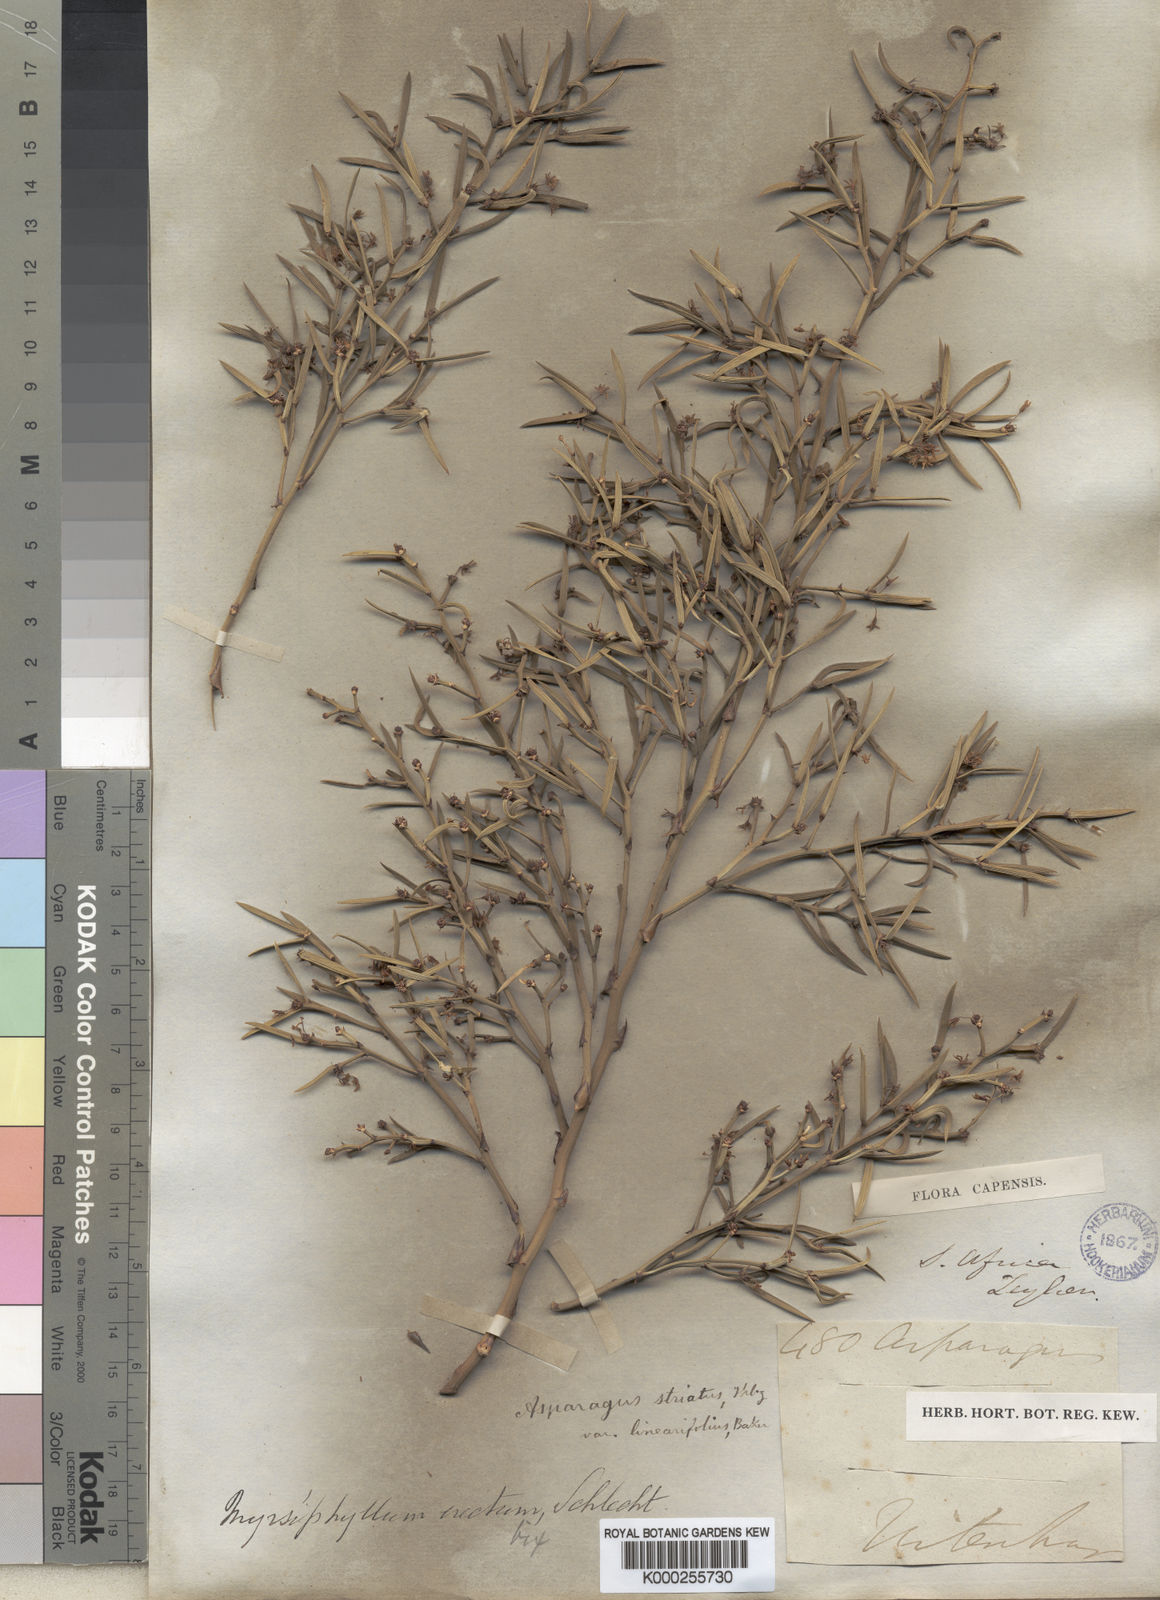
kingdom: Plantae
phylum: Tracheophyta
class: Liliopsida
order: Asparagales
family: Asparagaceae
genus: Asparagus
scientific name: Asparagus striatus
